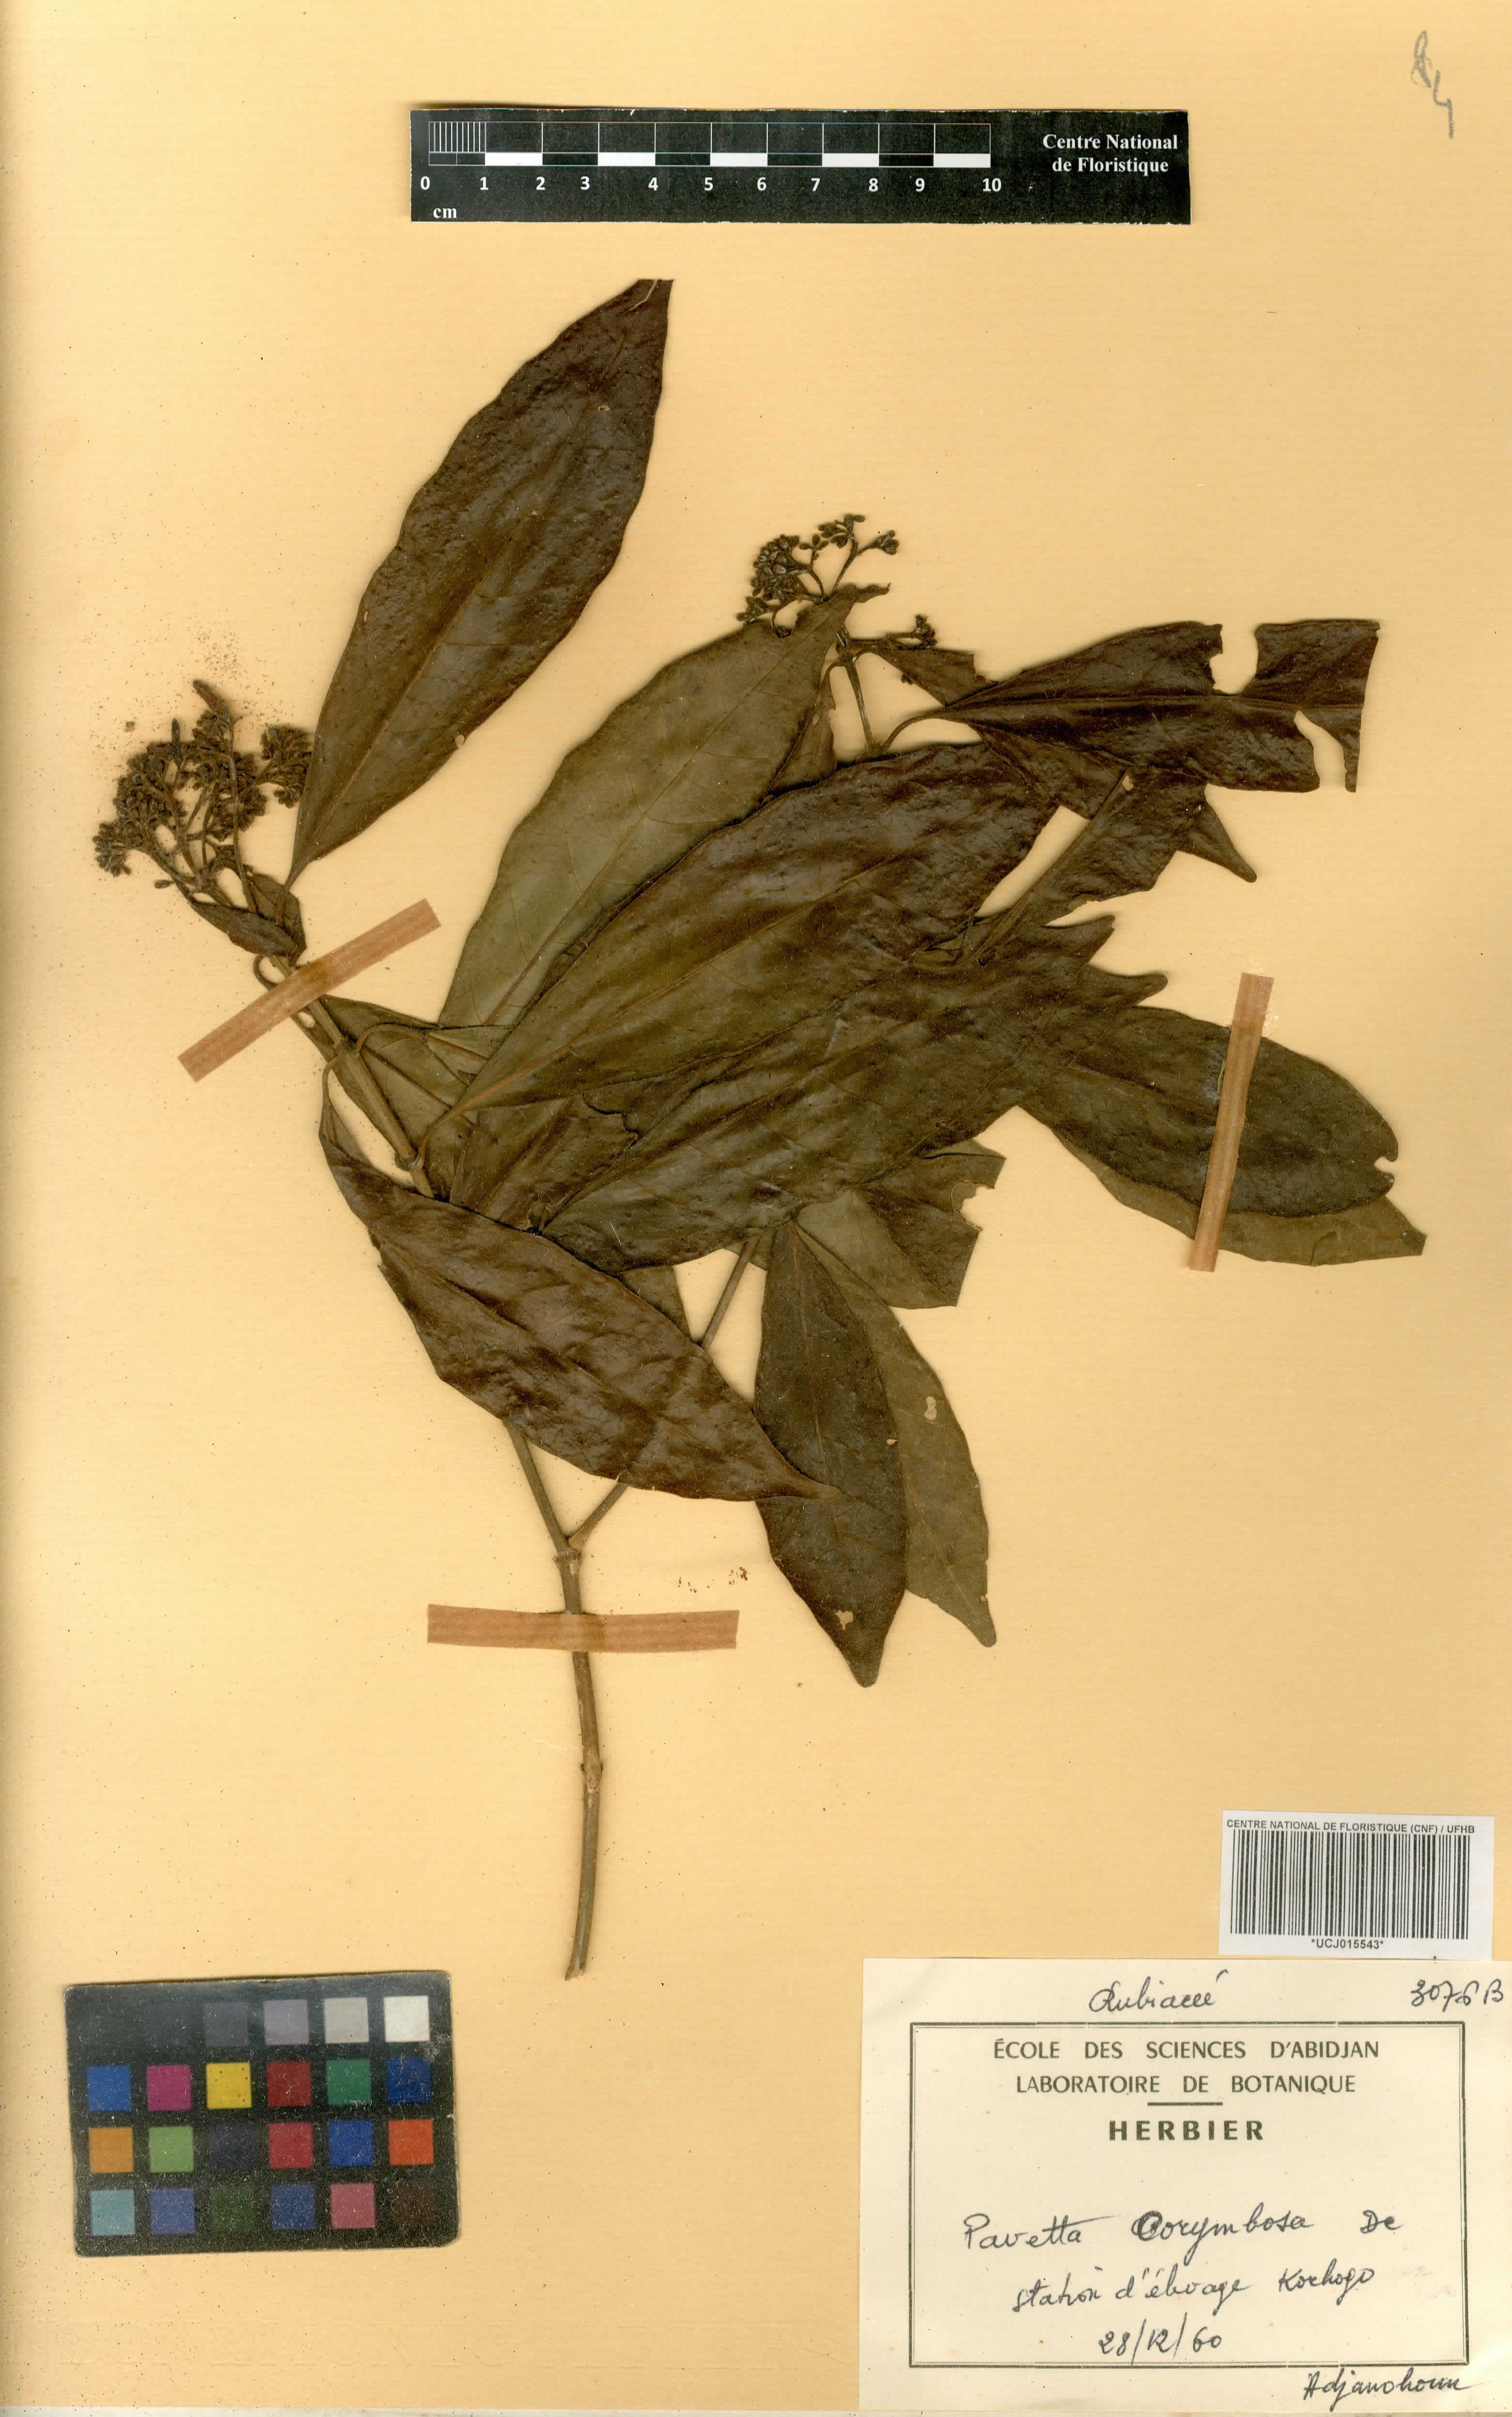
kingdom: Plantae
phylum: Tracheophyta
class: Magnoliopsida
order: Gentianales
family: Rubiaceae
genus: Pavetta
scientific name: Pavetta corymbosa
